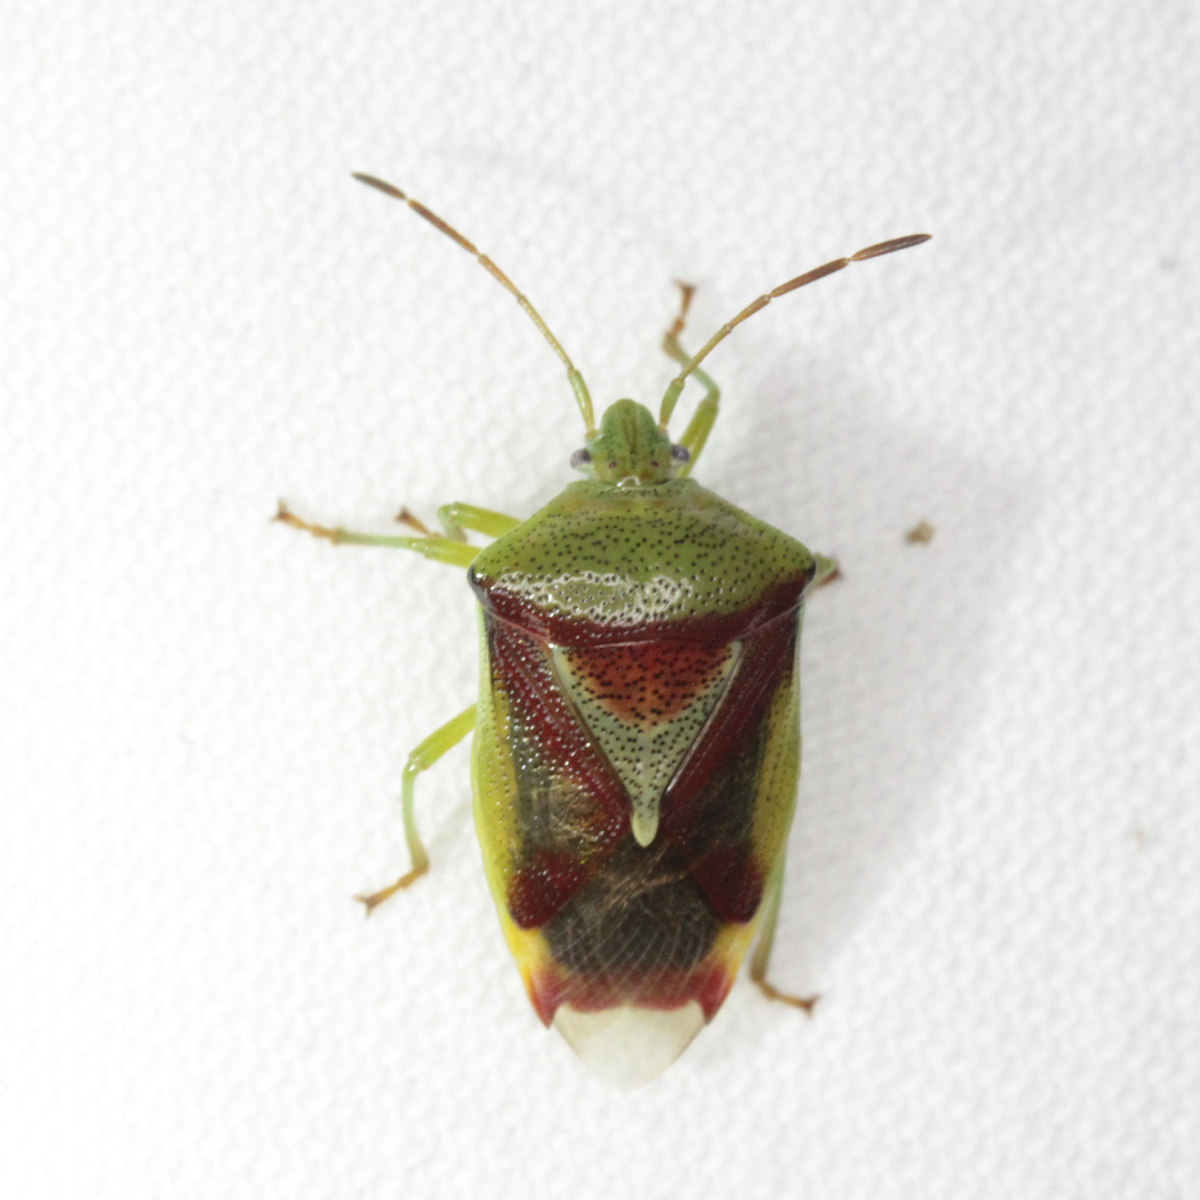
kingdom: Animalia
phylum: Arthropoda
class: Insecta
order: Hemiptera
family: Acanthosomatidae
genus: Elasmostethus
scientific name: Elasmostethus
